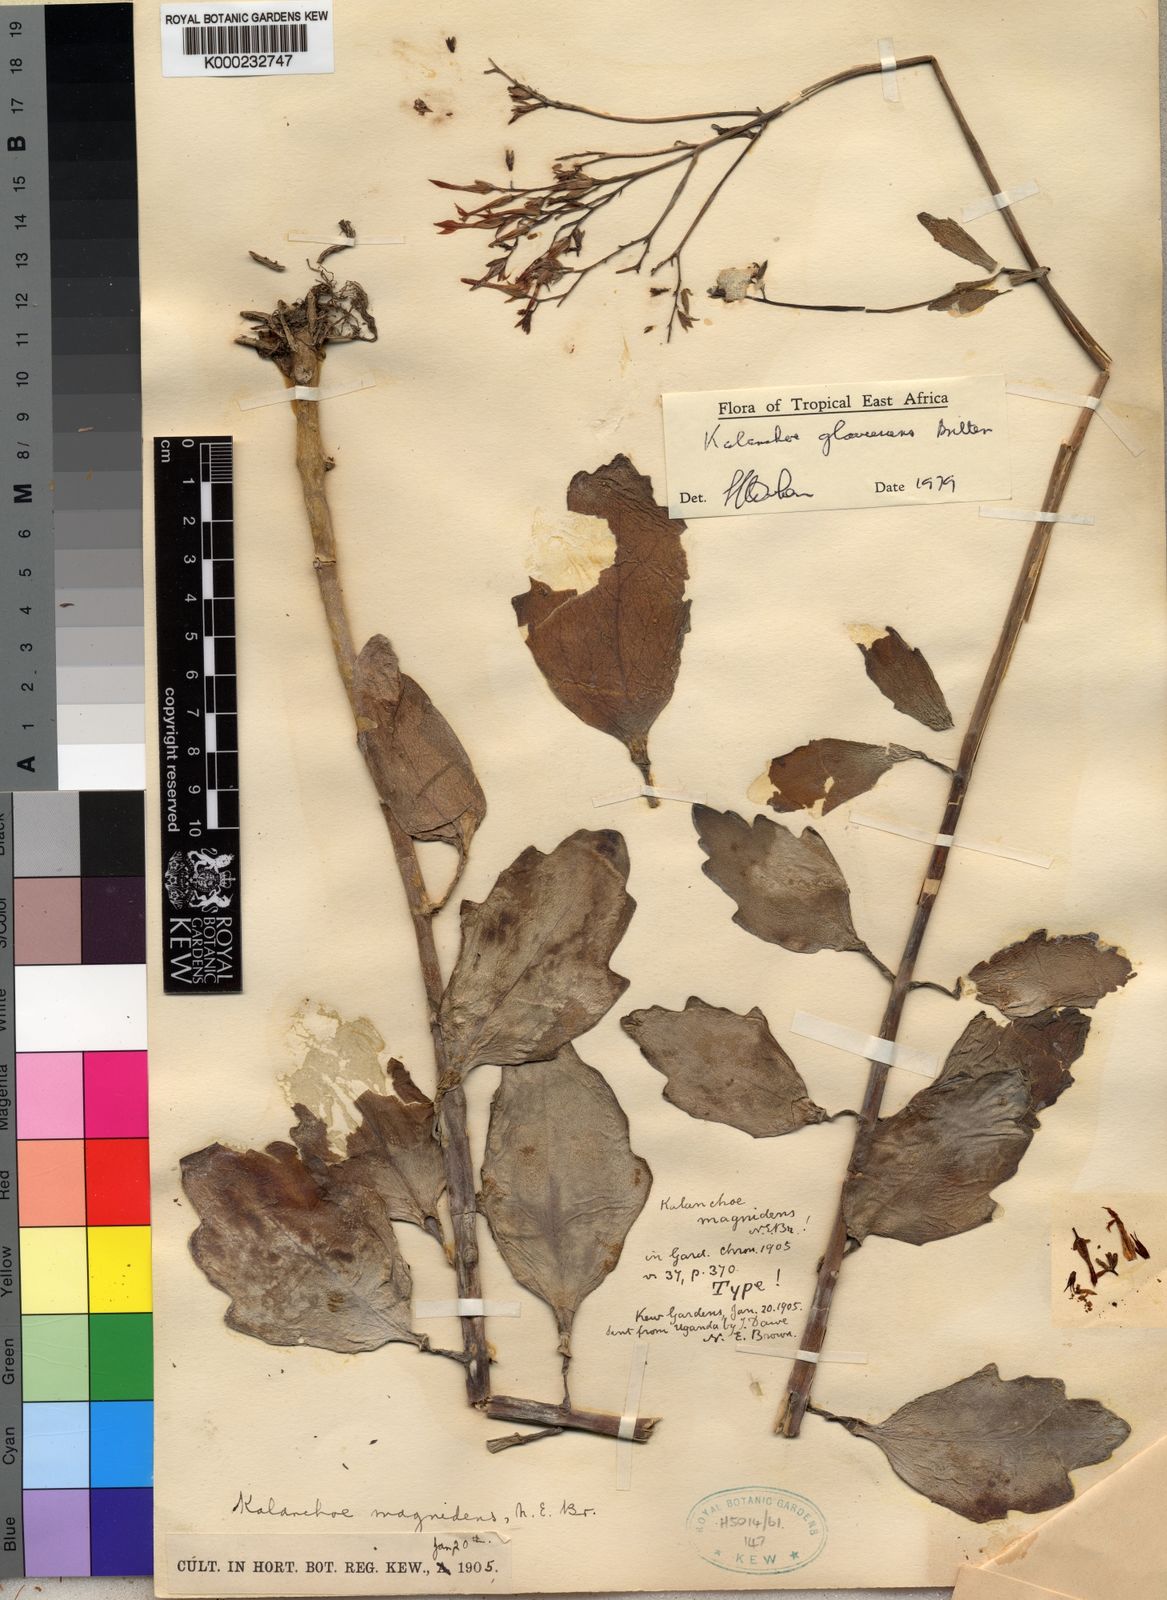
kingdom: Plantae
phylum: Tracheophyta
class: Magnoliopsida
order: Saxifragales
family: Crassulaceae
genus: Kalanchoe
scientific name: Kalanchoe glaucescens
